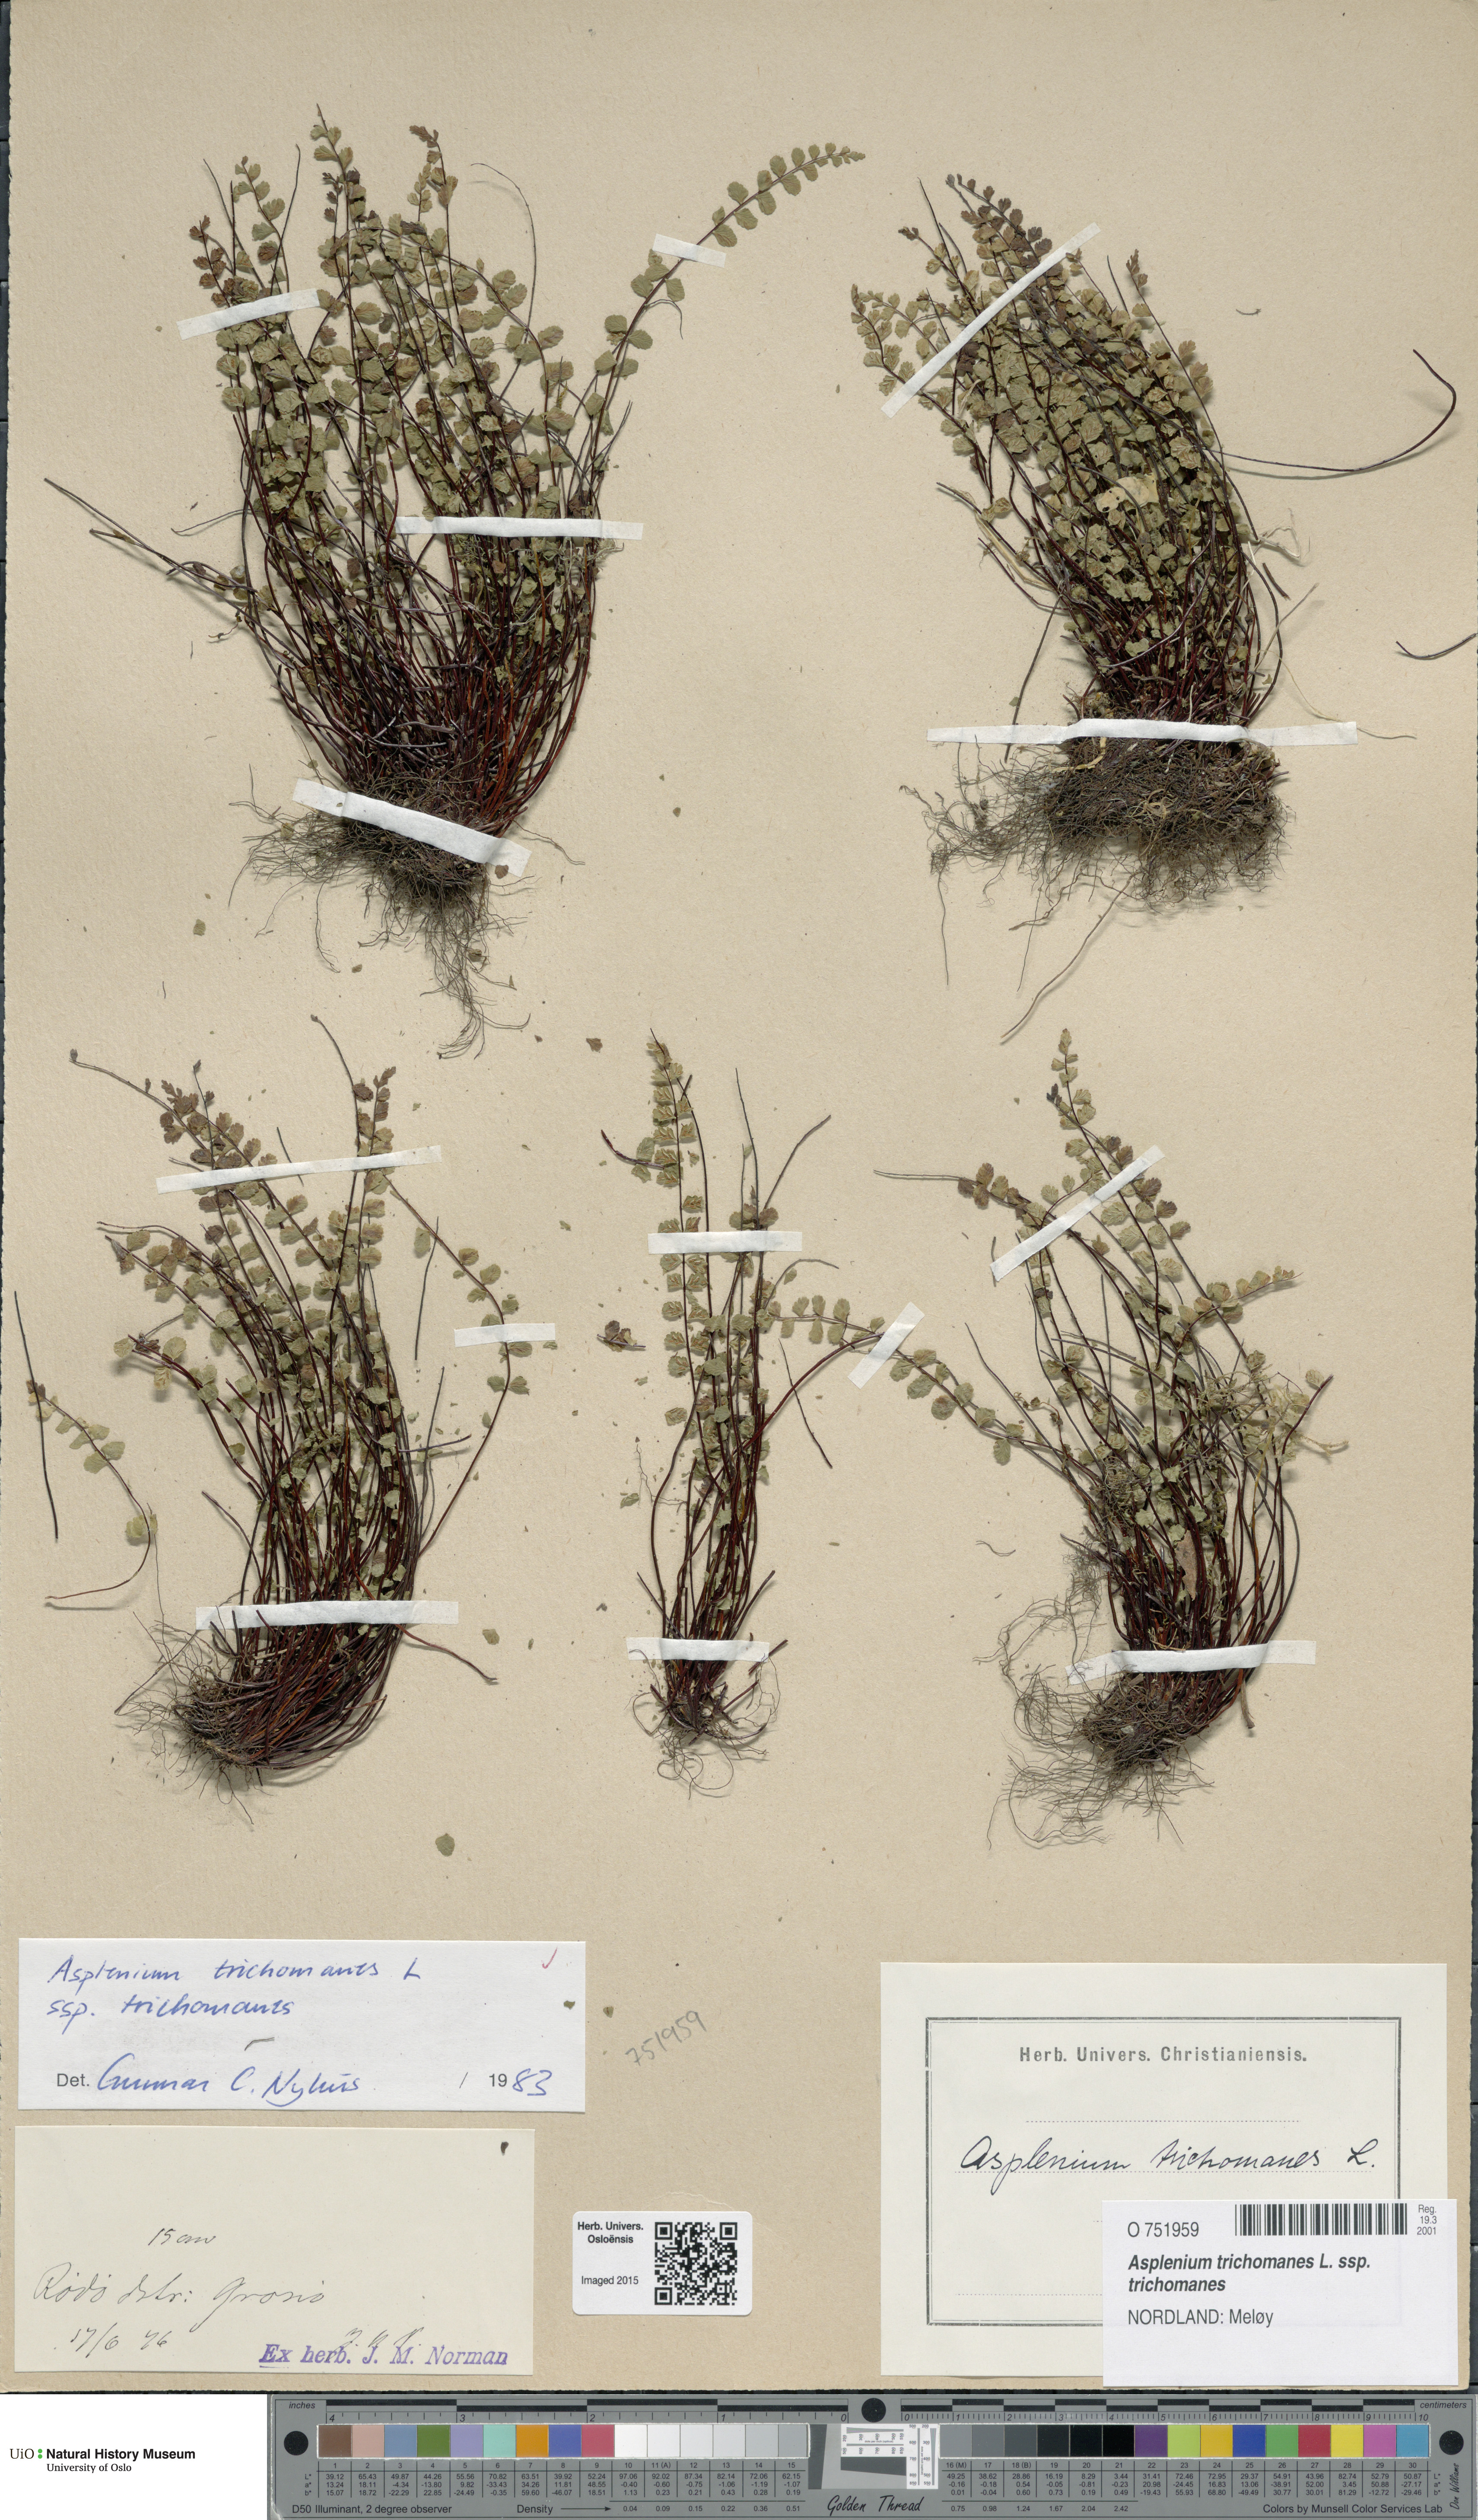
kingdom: Plantae
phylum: Tracheophyta
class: Polypodiopsida
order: Polypodiales
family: Aspleniaceae
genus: Asplenium
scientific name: Asplenium trichomanes
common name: Maidenhair spleenwort
